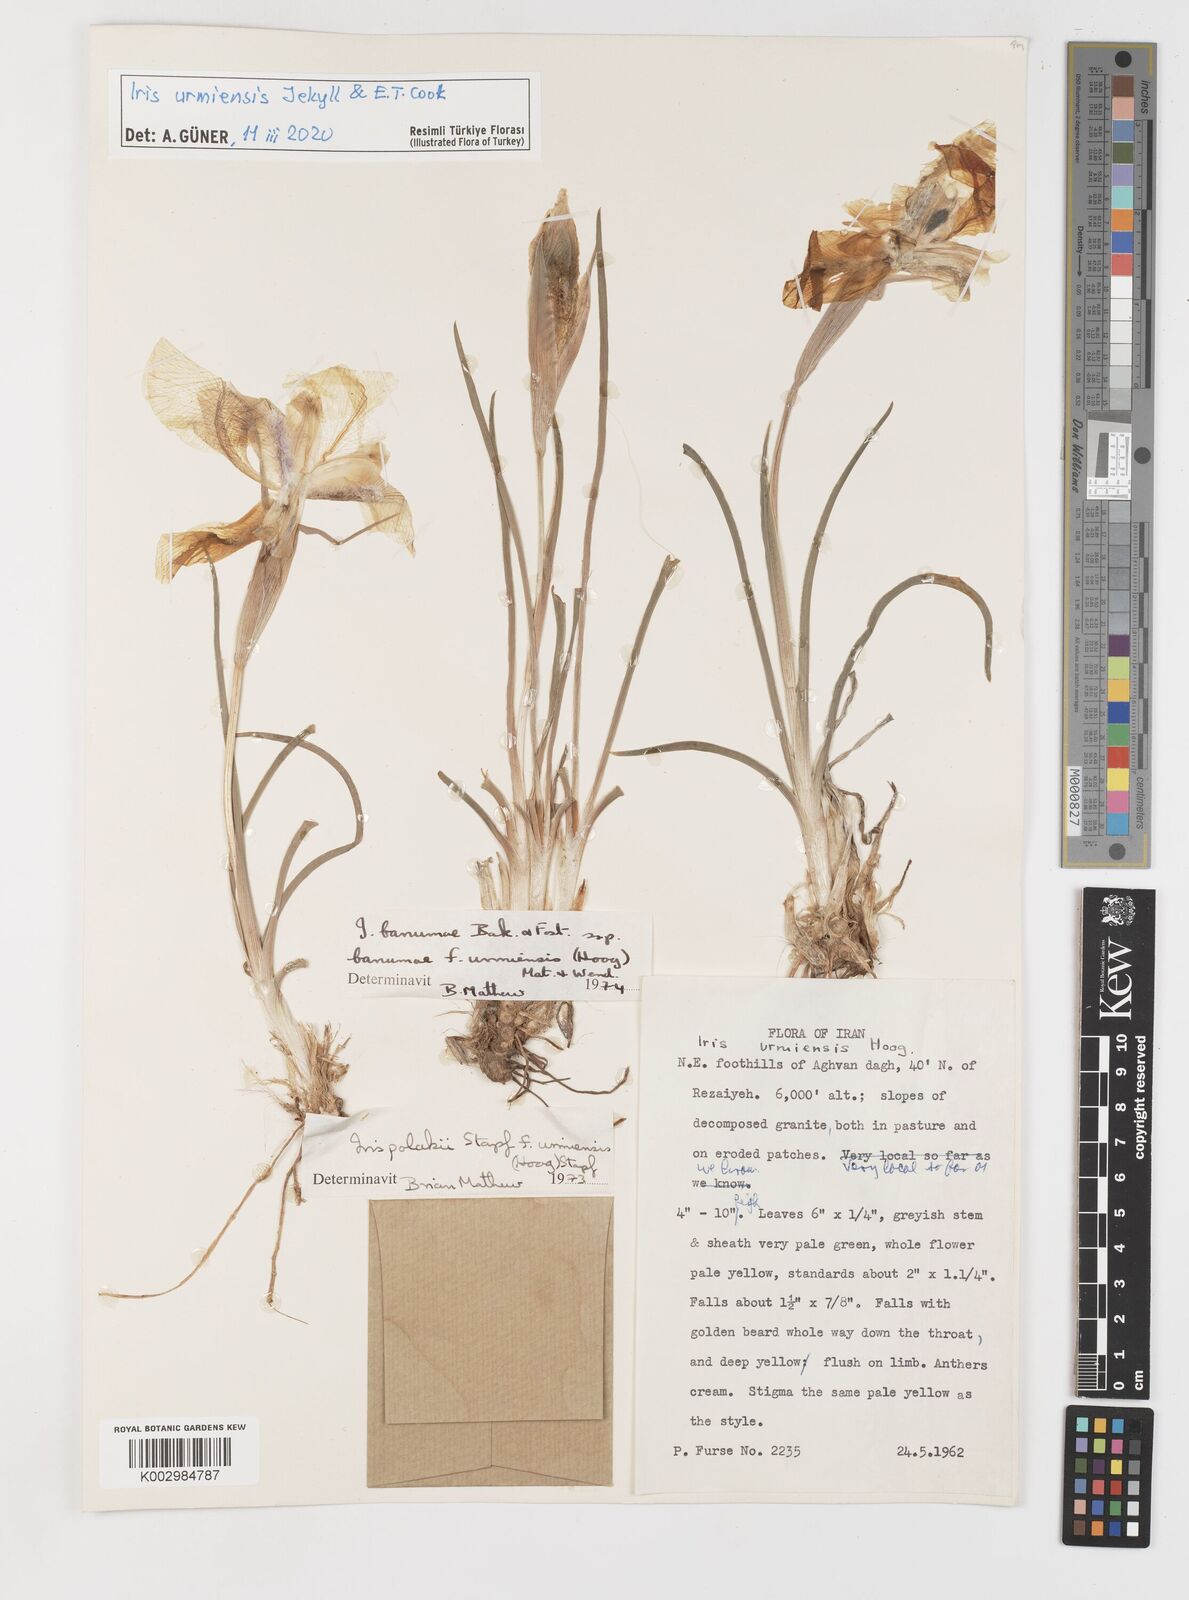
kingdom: Plantae
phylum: Tracheophyta
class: Liliopsida
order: Asparagales
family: Iridaceae
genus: Iris
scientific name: Iris urmiensis
